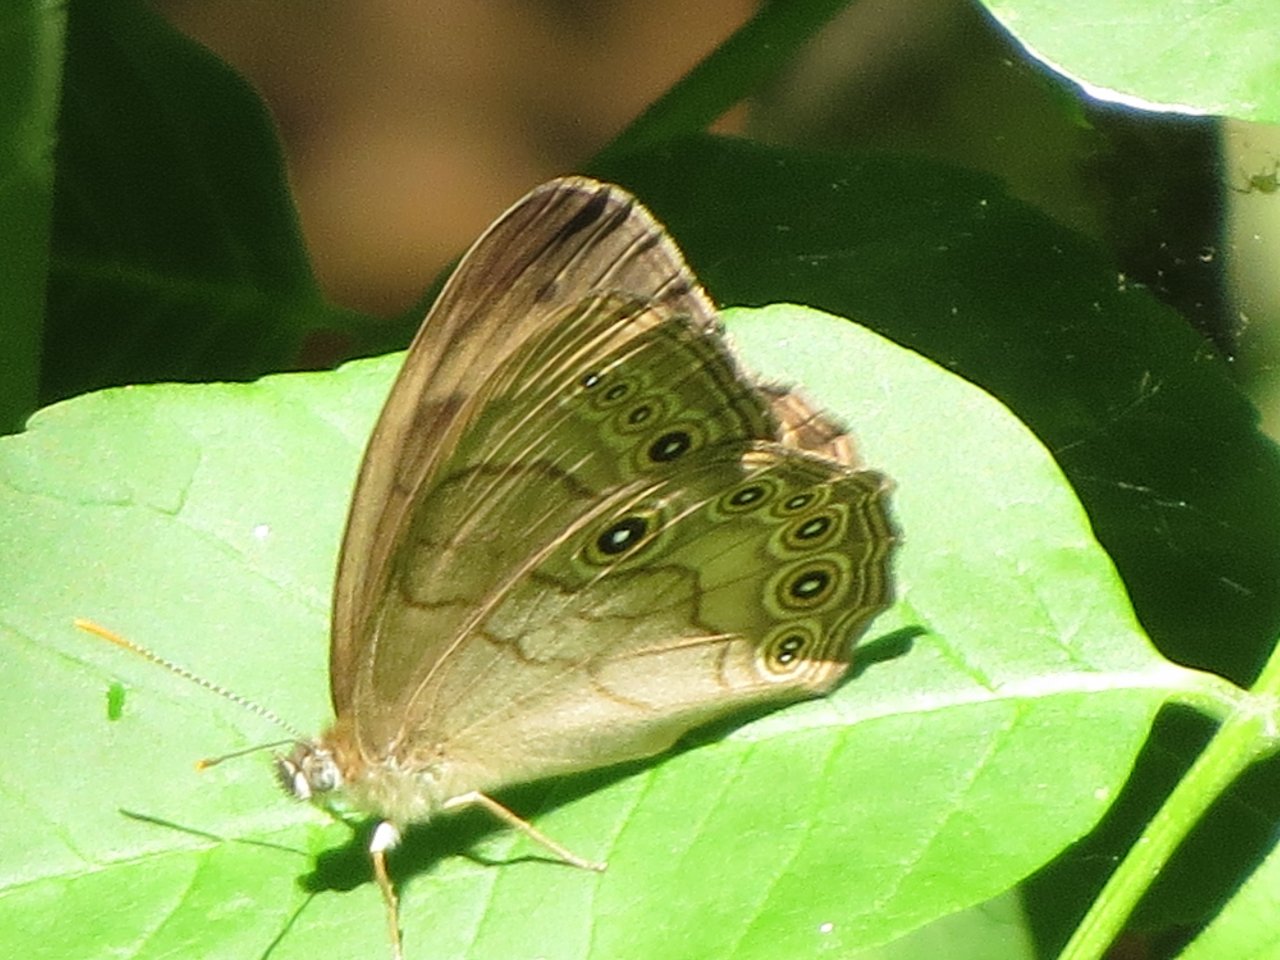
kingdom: Animalia
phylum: Arthropoda
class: Insecta
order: Lepidoptera
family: Nymphalidae
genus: Lethe
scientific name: Lethe eurydice
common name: Appalachian Eyed Brown
